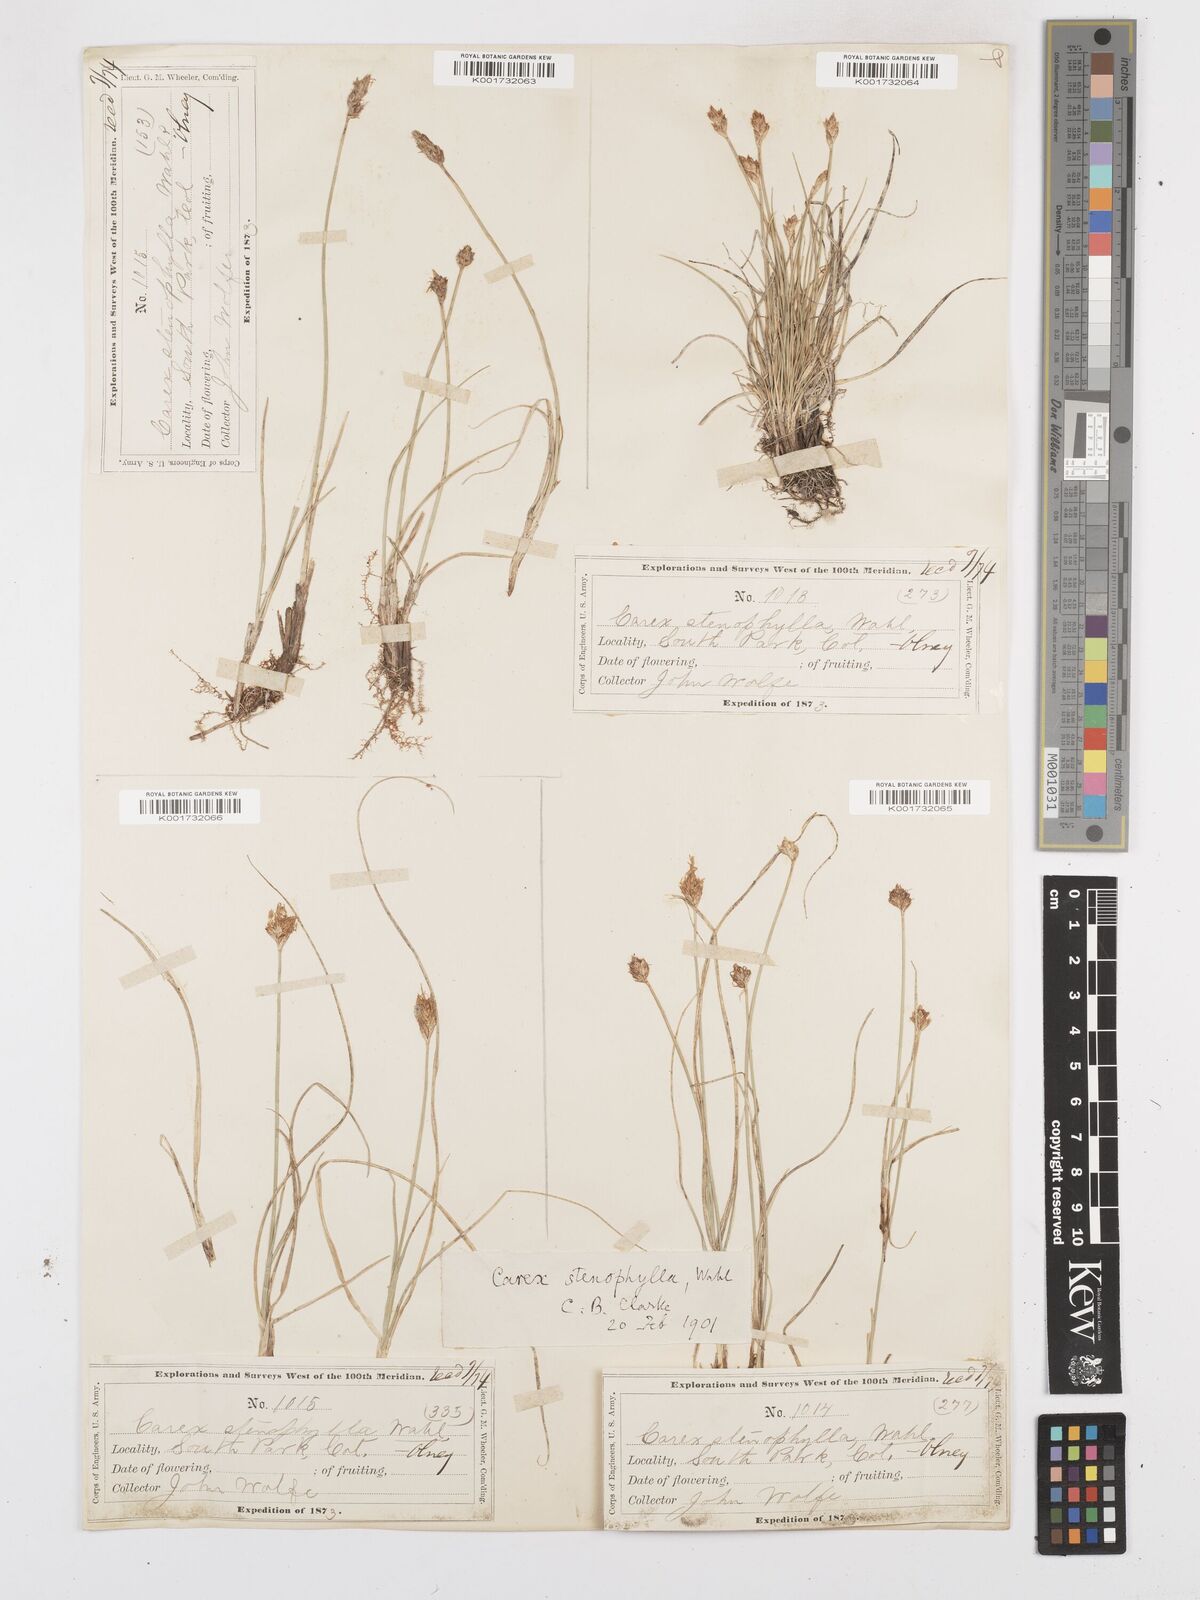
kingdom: Plantae
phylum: Tracheophyta
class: Liliopsida
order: Poales
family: Cyperaceae
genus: Carex
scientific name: Carex duriuscula
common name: Involute-leaved sedge
